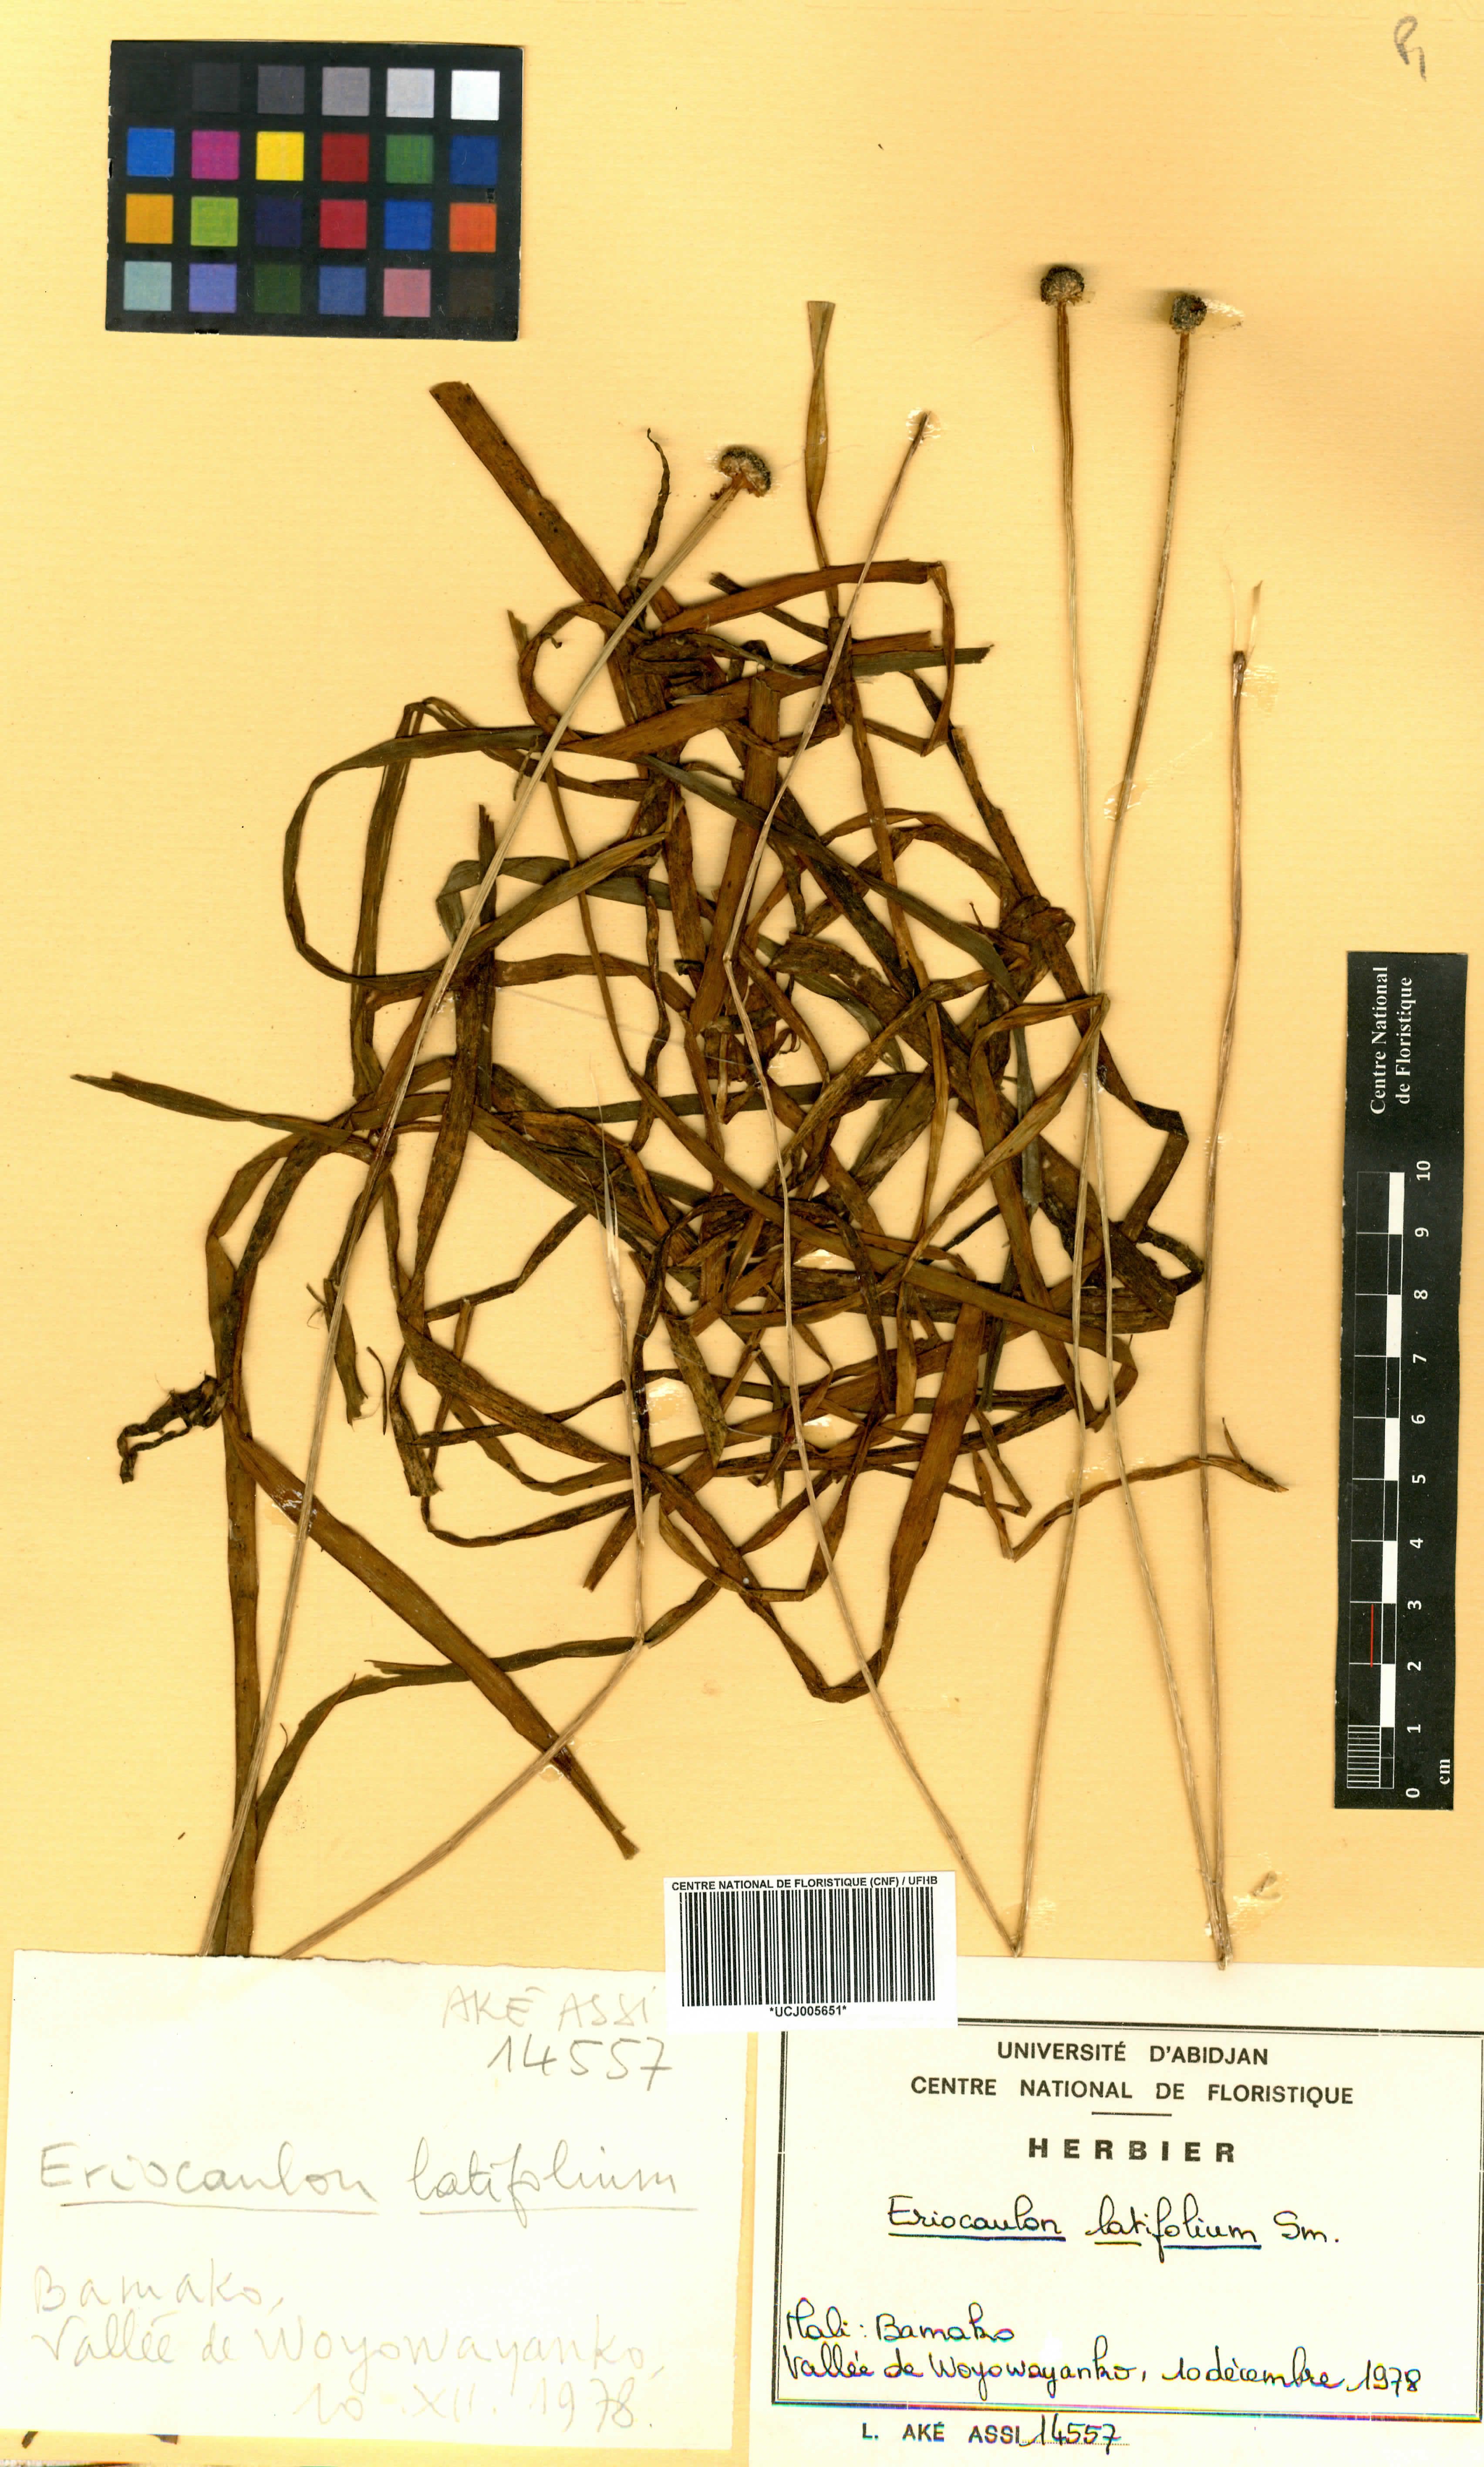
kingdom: Plantae
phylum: Tracheophyta
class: Liliopsida
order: Poales
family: Eriocaulaceae
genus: Eriocaulon
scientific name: Eriocaulon latifolium
